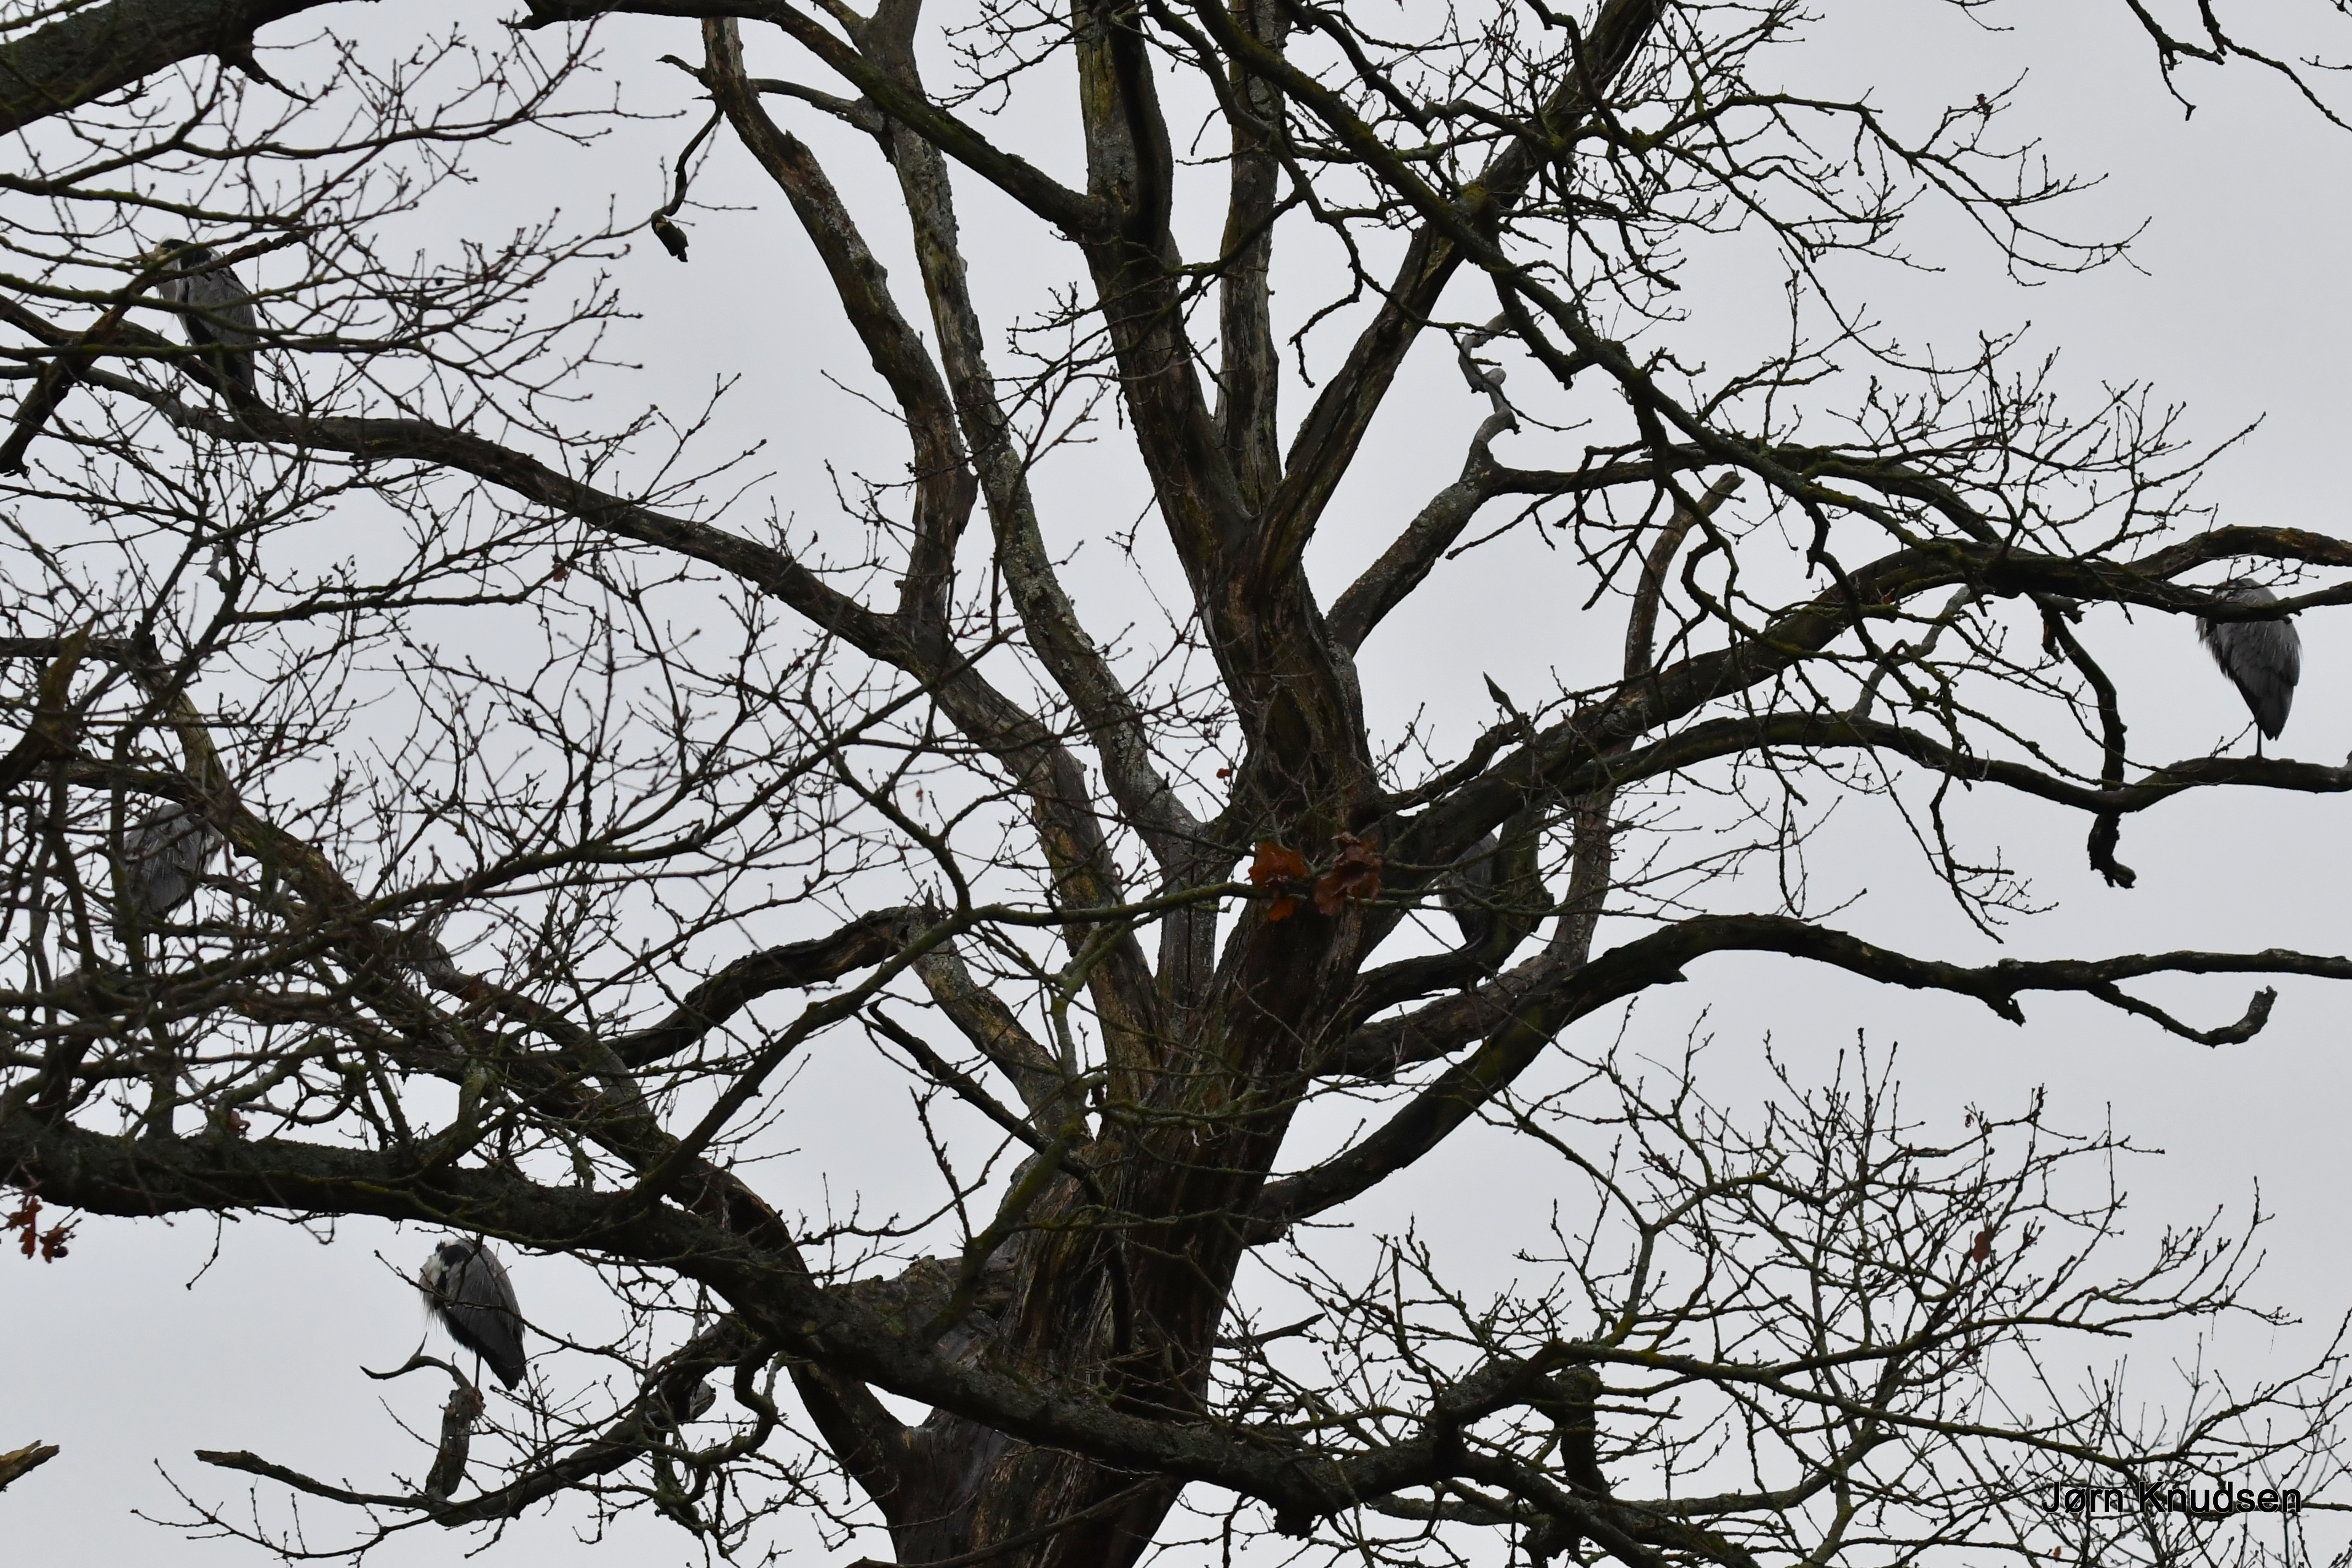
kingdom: Animalia
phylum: Chordata
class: Aves
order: Pelecaniformes
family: Ardeidae
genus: Ardea
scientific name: Ardea cinerea
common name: Fiskehejre
